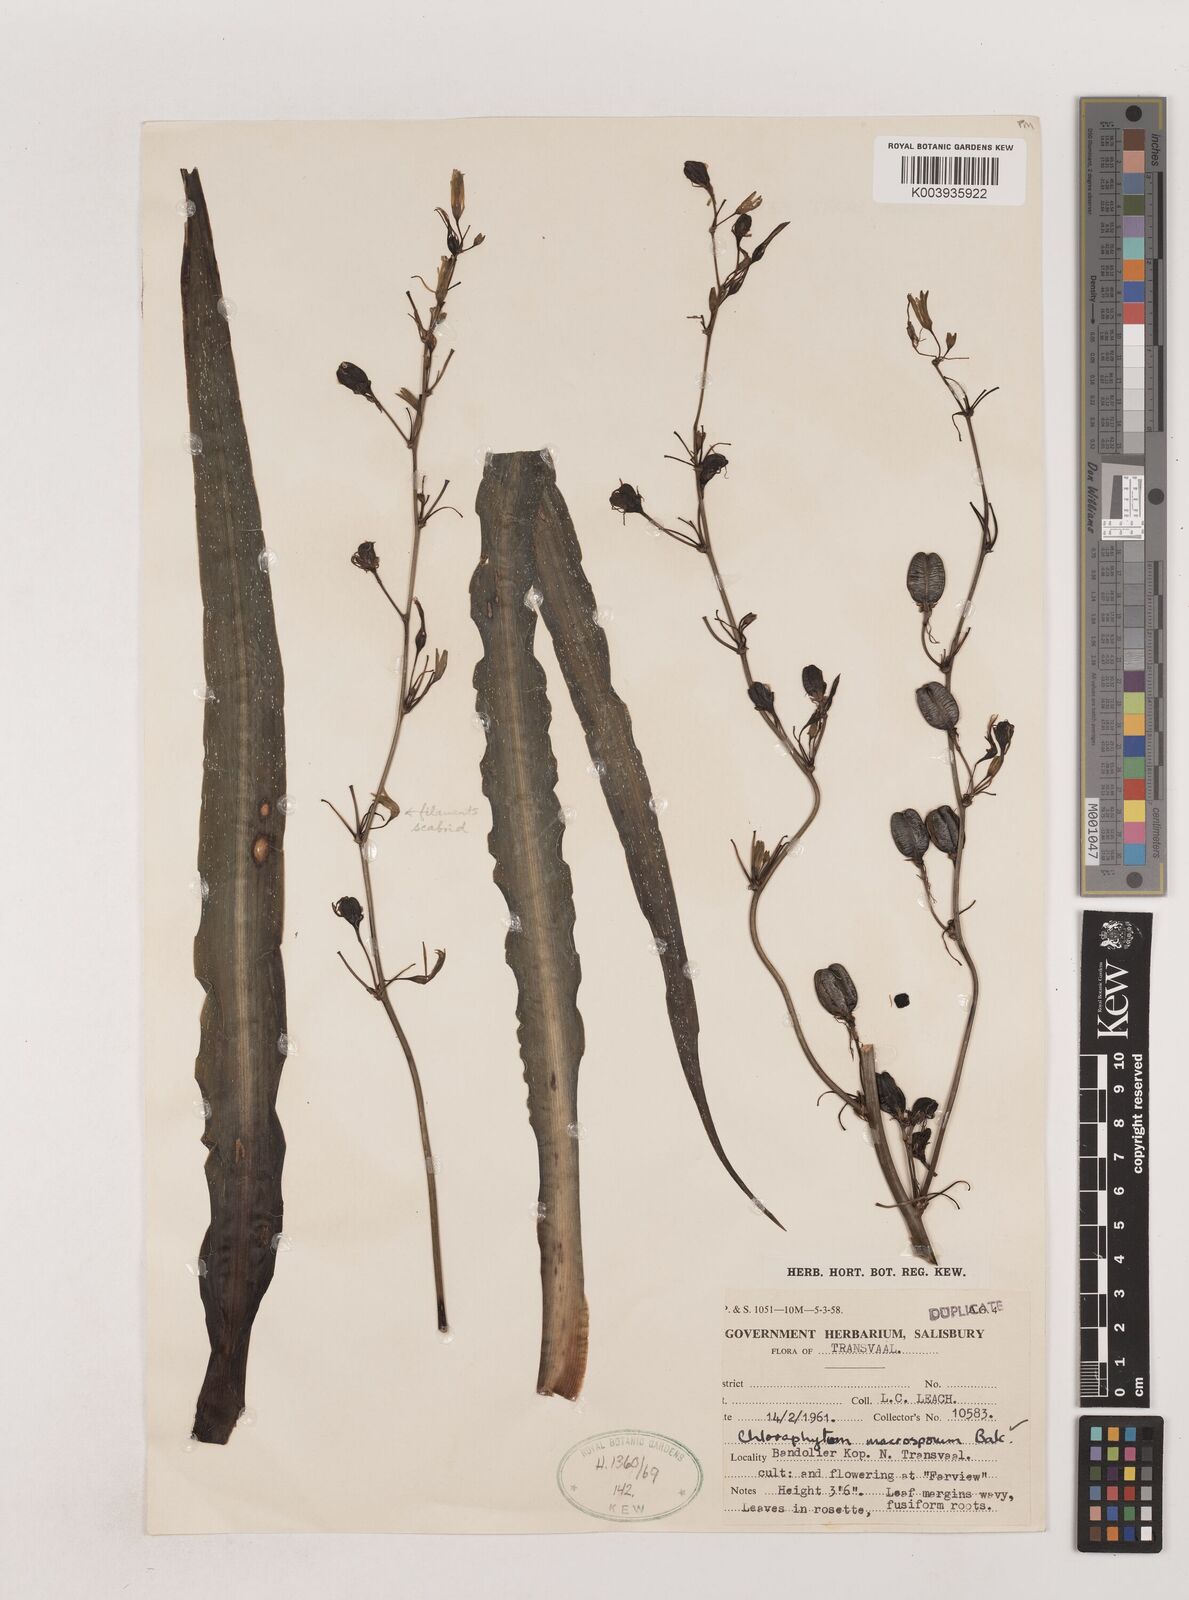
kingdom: Plantae
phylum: Tracheophyta
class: Liliopsida
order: Asparagales
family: Asparagaceae
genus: Chlorophytum
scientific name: Chlorophytum macrosporum
